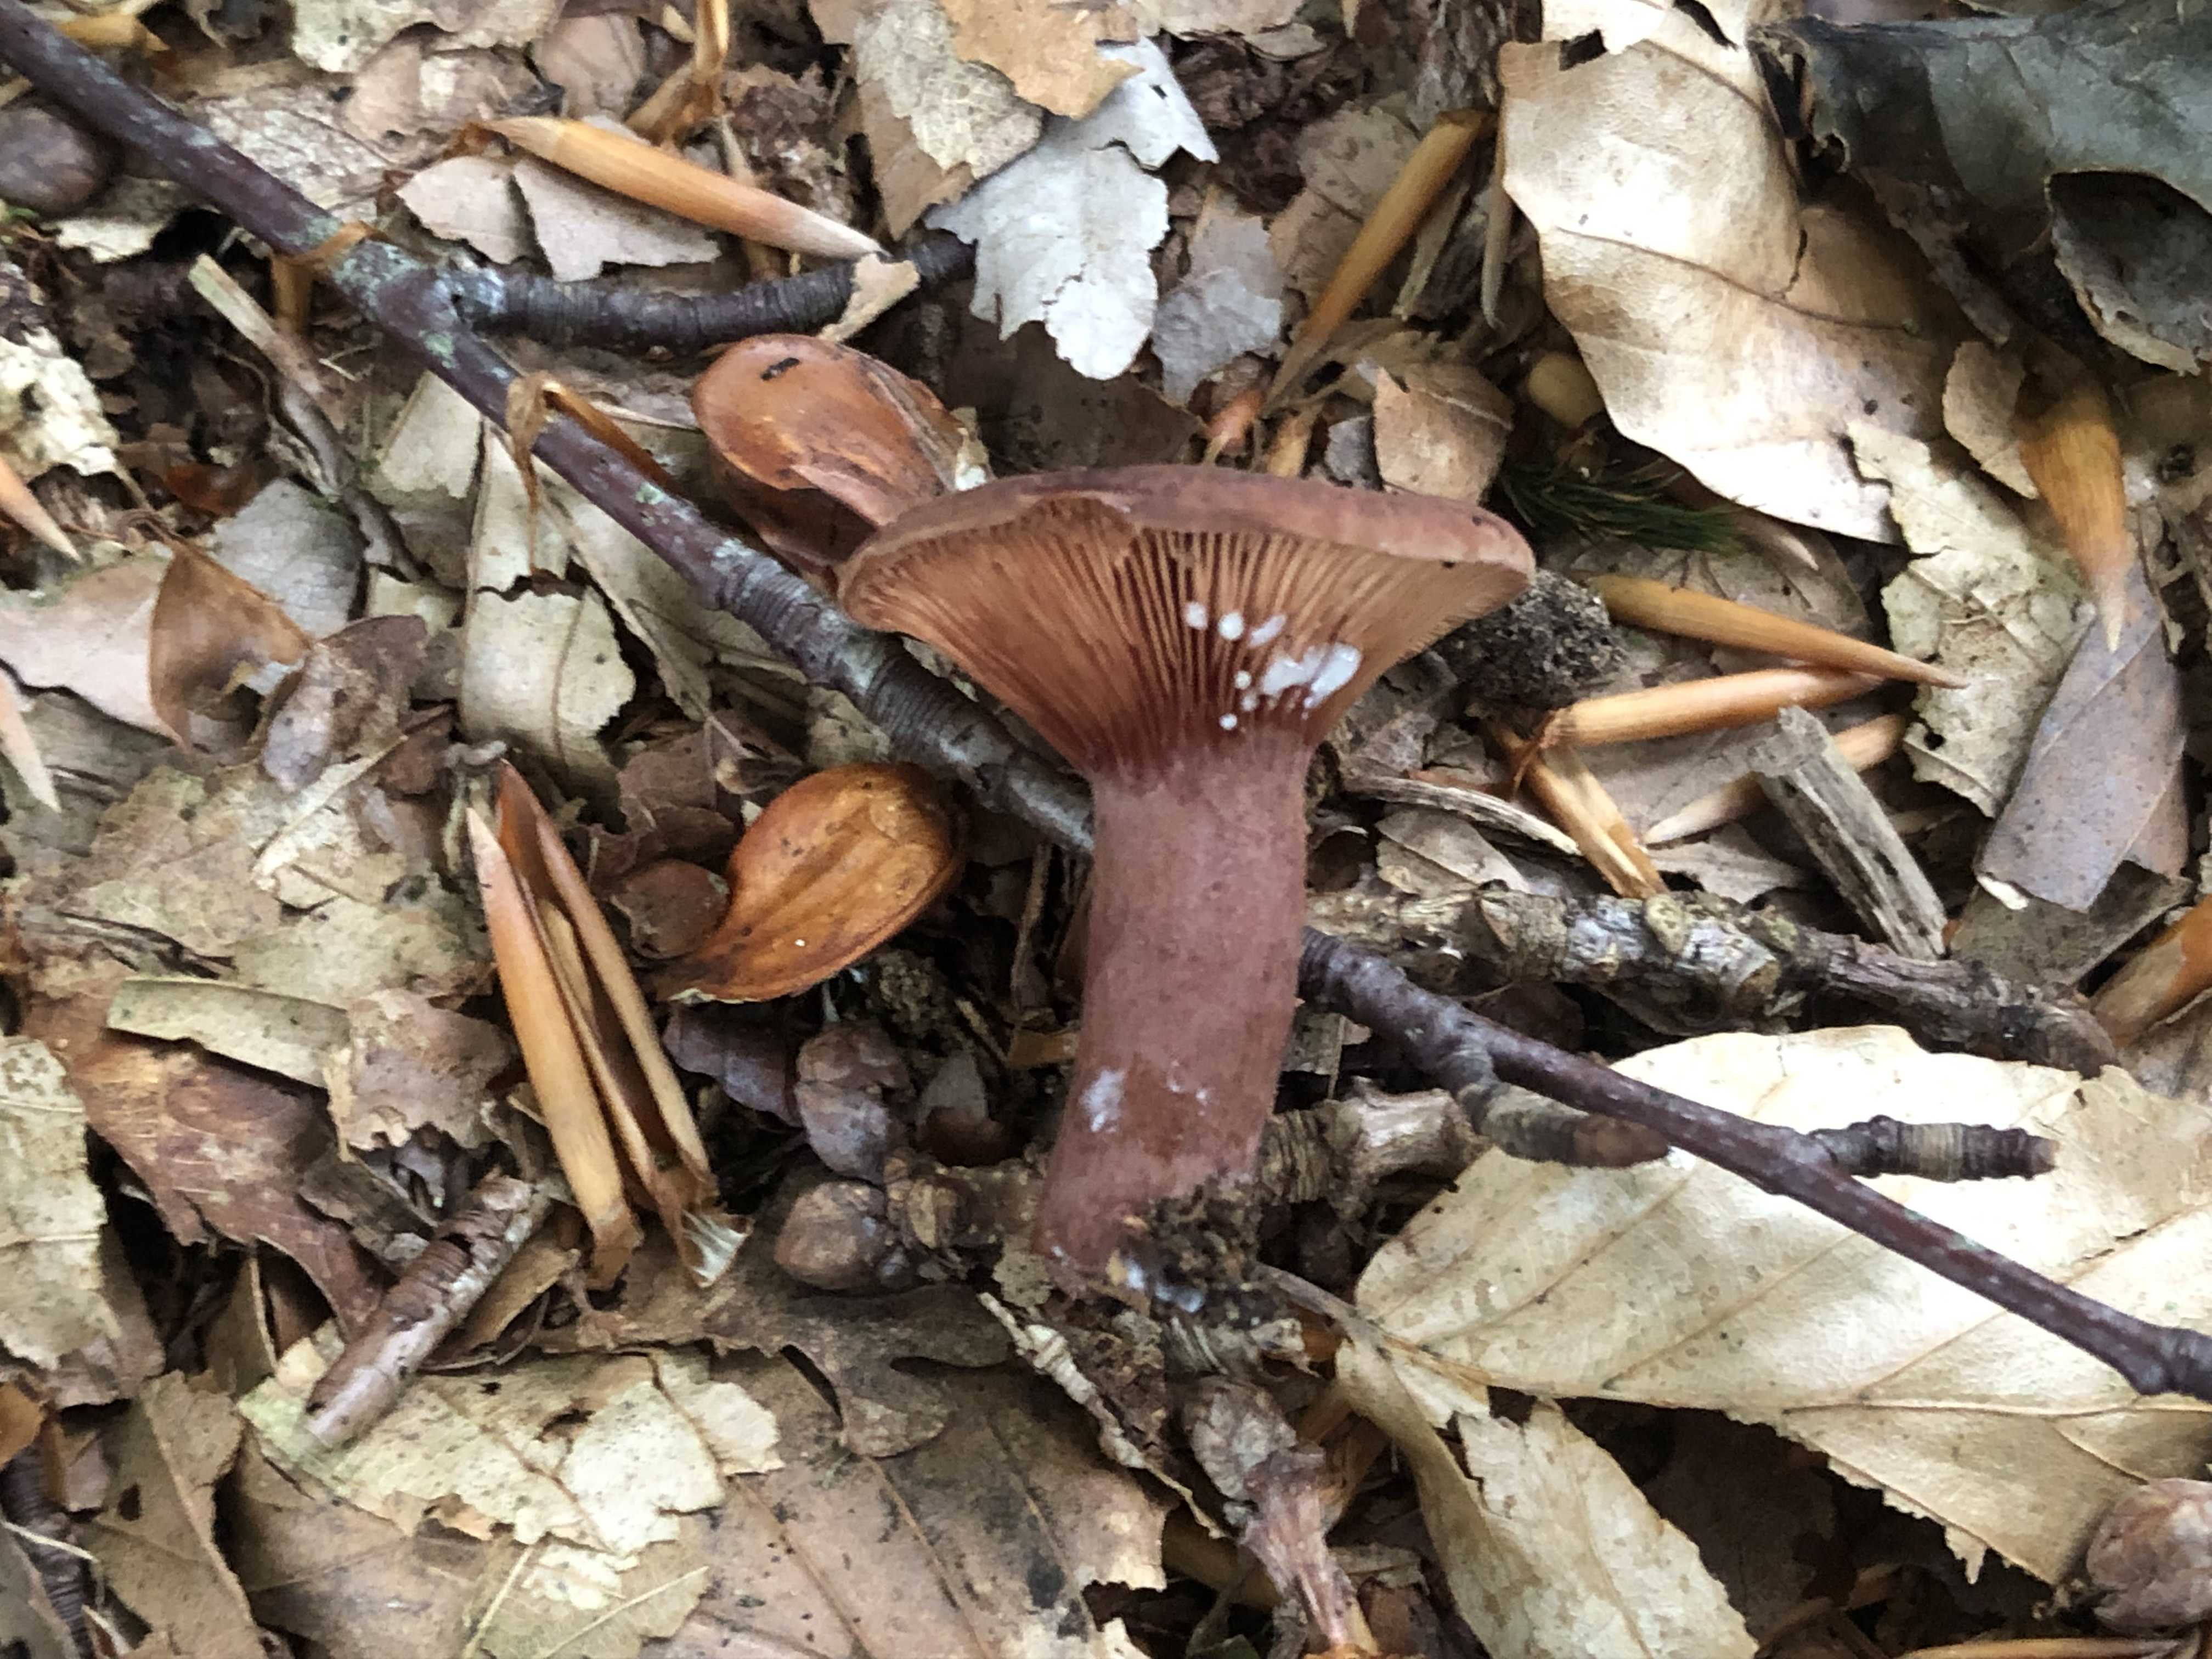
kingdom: Fungi
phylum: Basidiomycota
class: Agaricomycetes
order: Russulales
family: Russulaceae
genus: Lactarius
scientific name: Lactarius camphoratus
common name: kamfer-mælkehat
